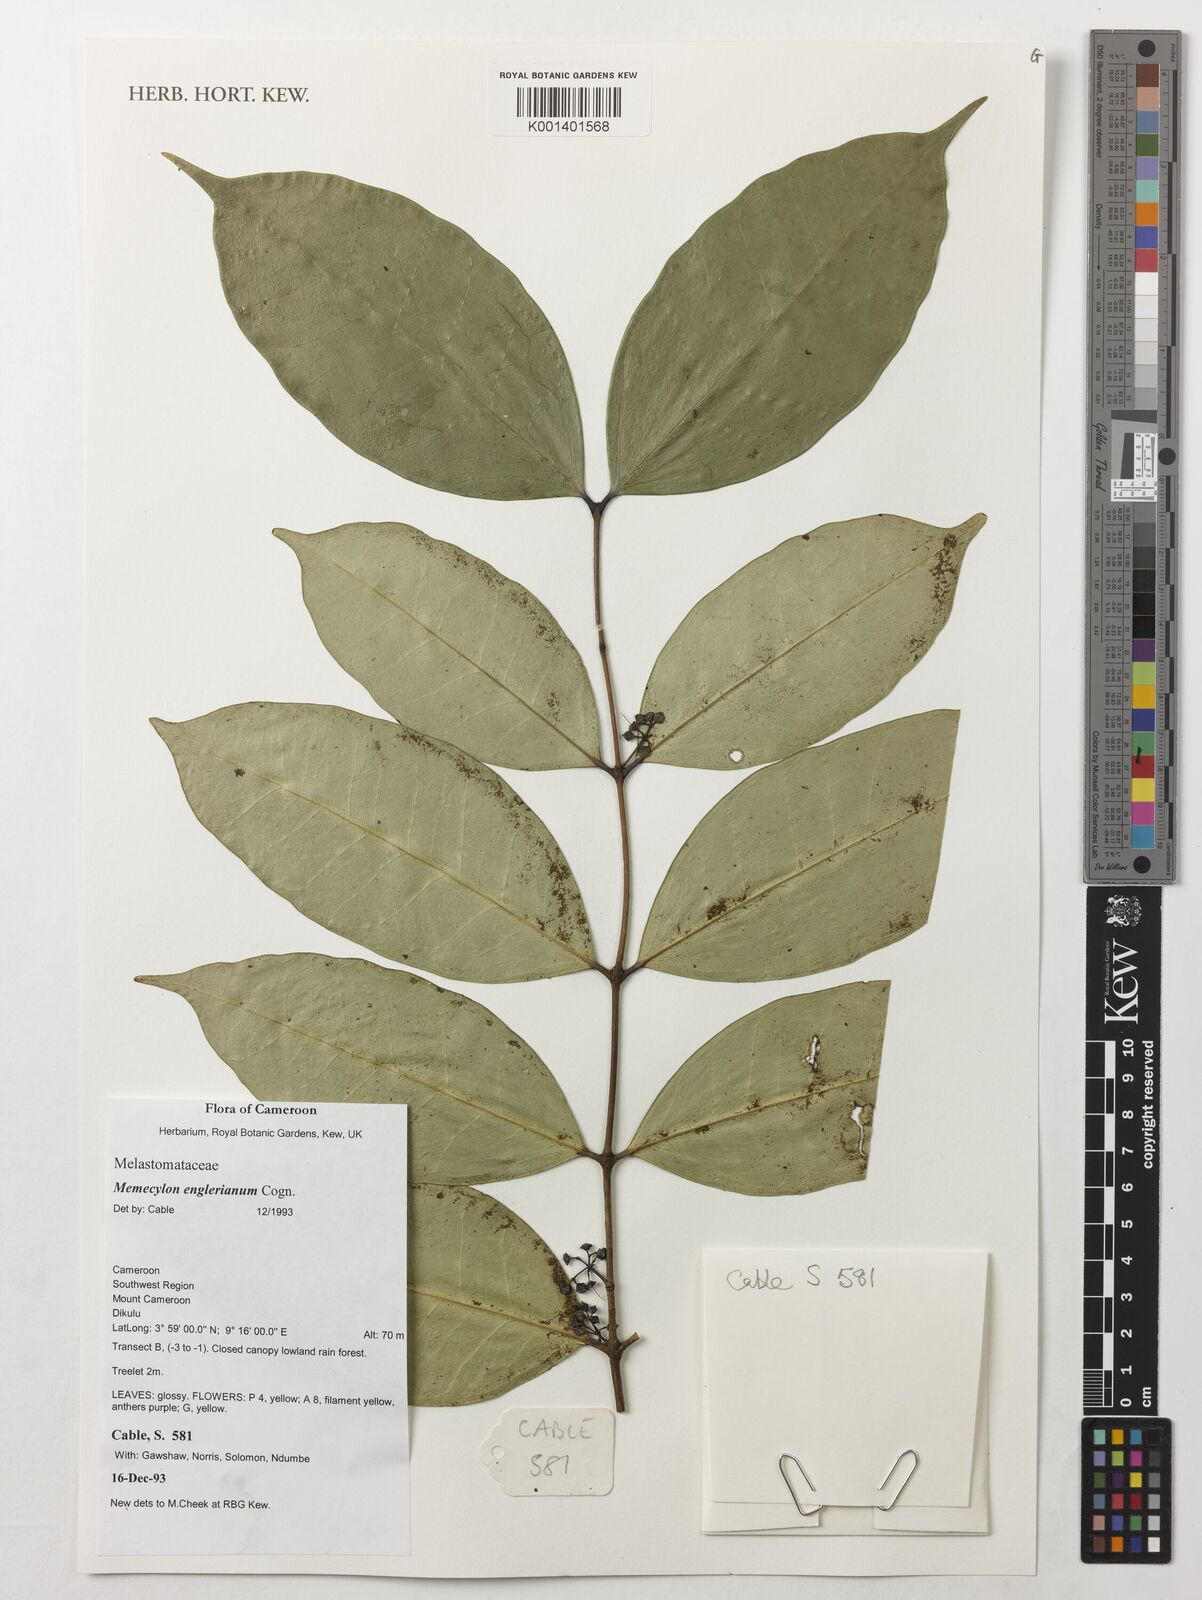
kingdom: Plantae
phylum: Tracheophyta
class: Magnoliopsida
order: Myrtales
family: Melastomataceae
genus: Memecylon
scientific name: Memecylon englerianum
